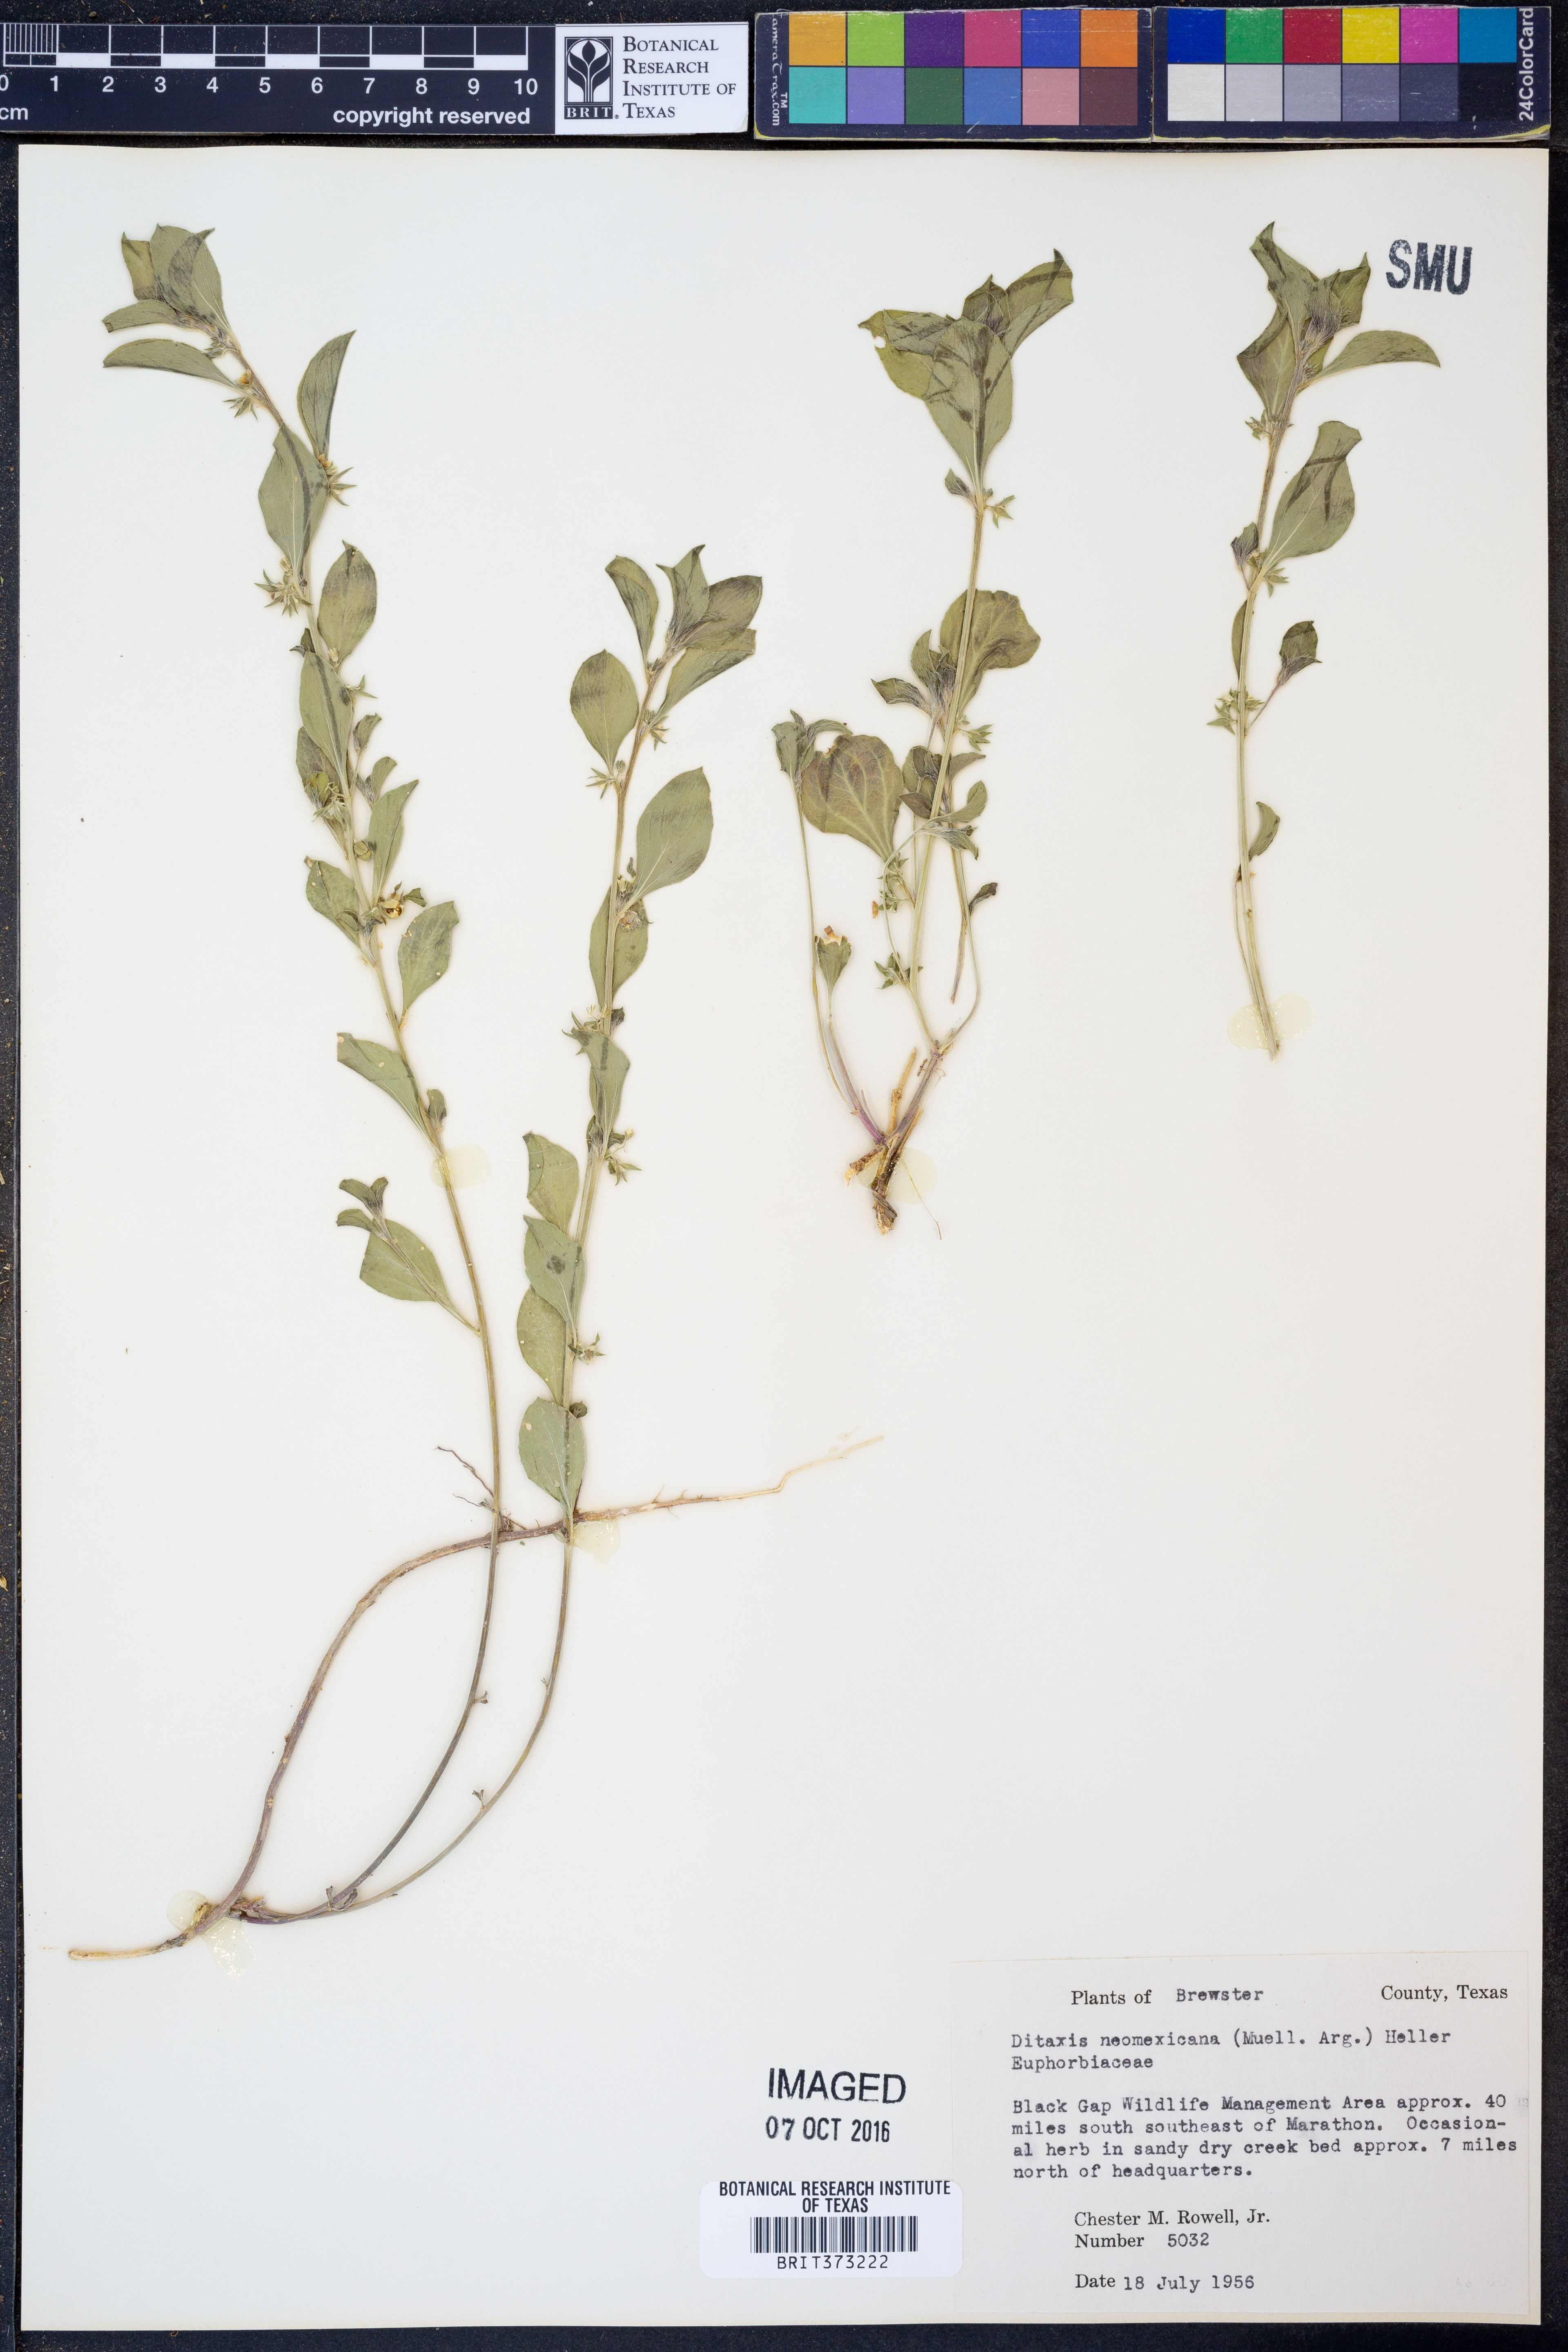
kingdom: Plantae
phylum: Tracheophyta
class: Magnoliopsida
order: Malpighiales
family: Euphorbiaceae
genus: Ditaxis
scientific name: Ditaxis serrata
